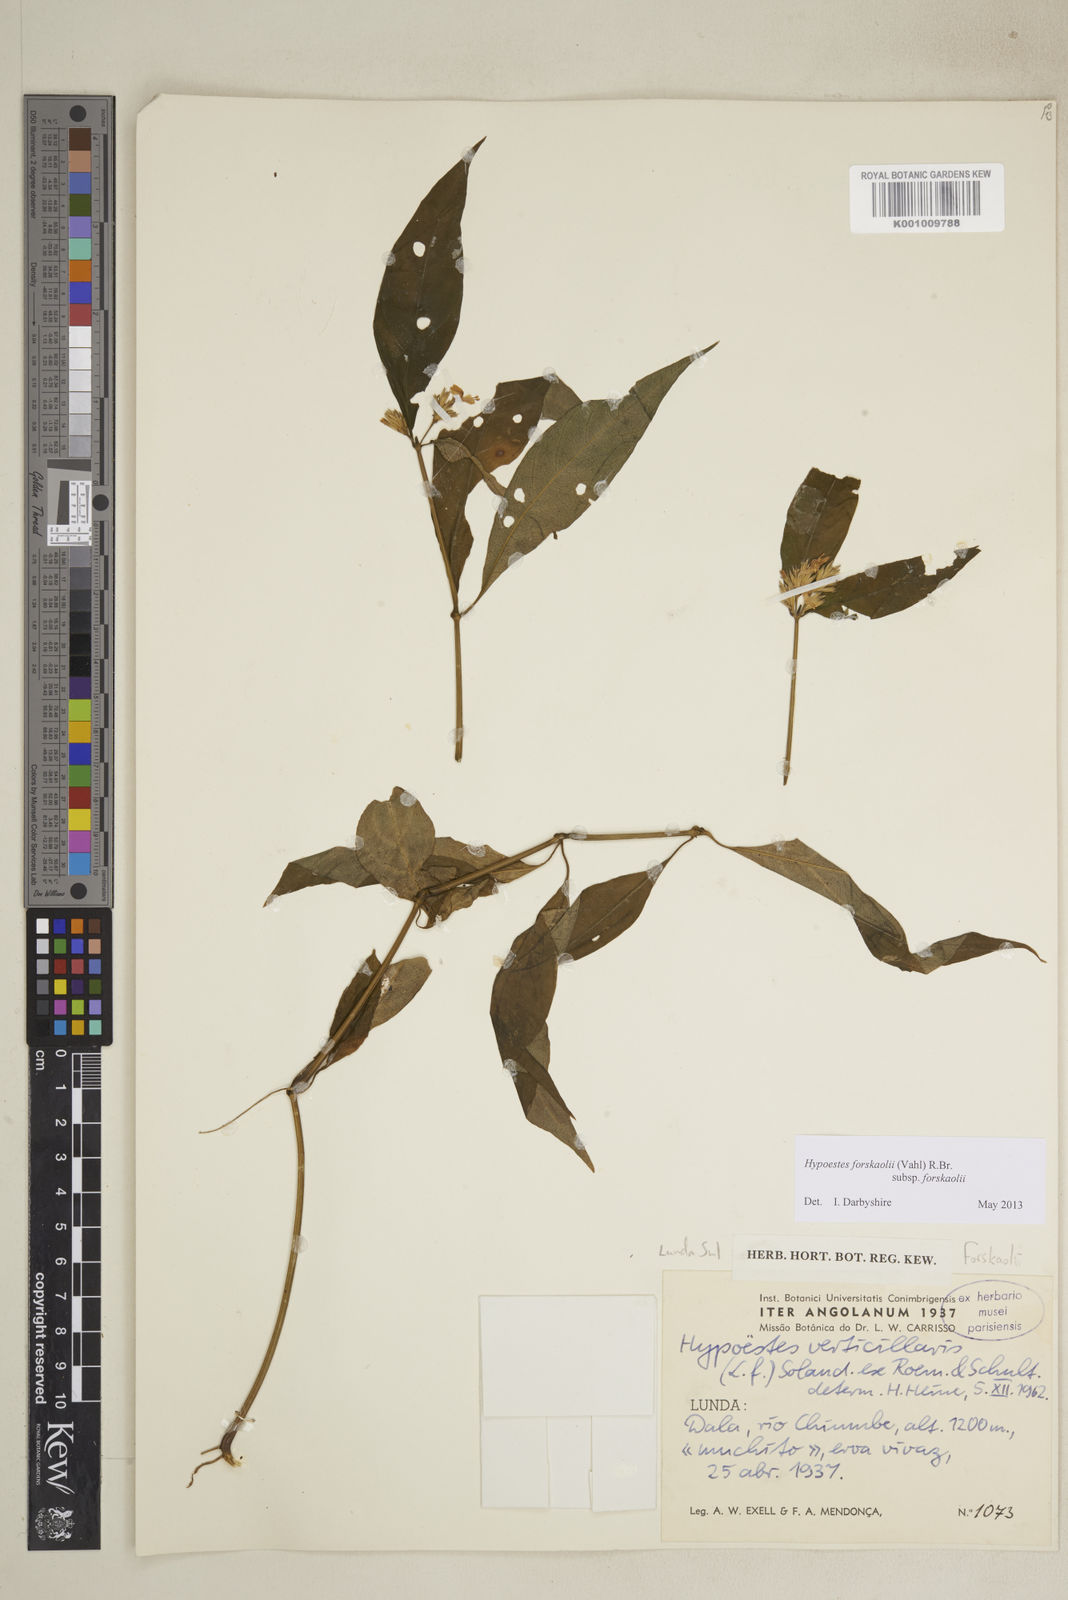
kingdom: Plantae
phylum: Tracheophyta
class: Magnoliopsida
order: Lamiales
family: Acanthaceae
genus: Hypoestes
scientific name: Hypoestes forskaolii
